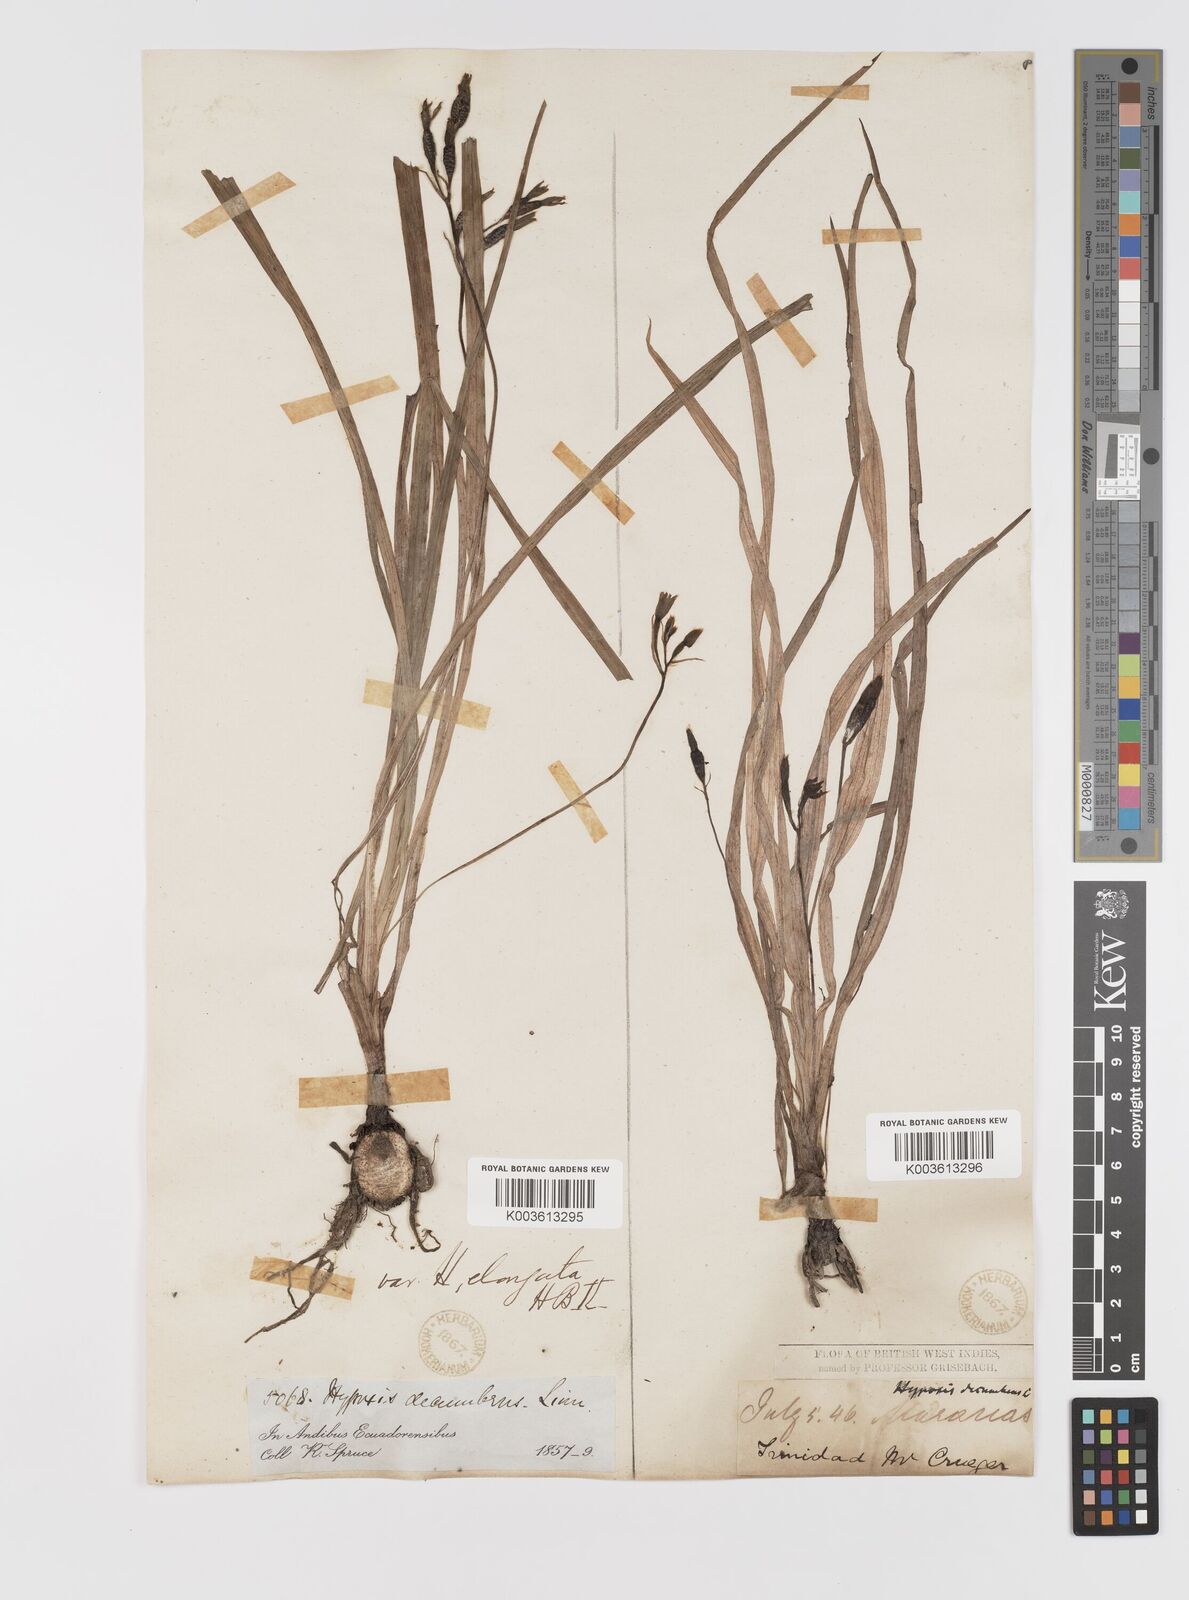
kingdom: Plantae
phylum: Tracheophyta
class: Liliopsida
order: Asparagales
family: Hypoxidaceae
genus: Hypoxis
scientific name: Hypoxis decumbens
